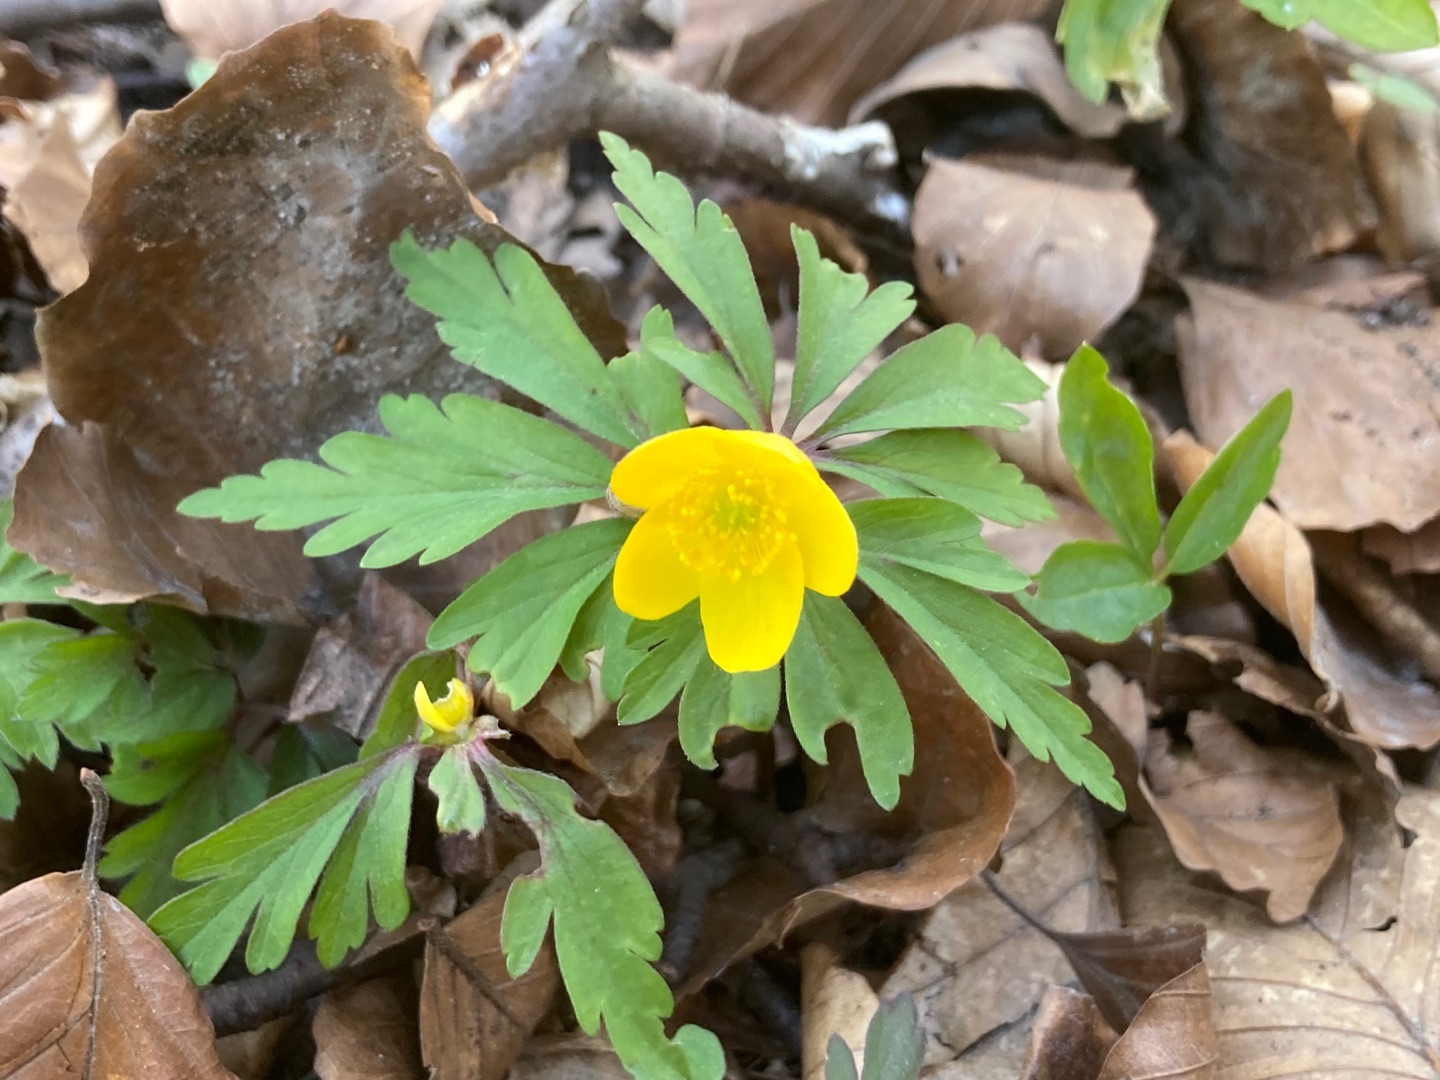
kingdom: Plantae
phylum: Tracheophyta
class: Magnoliopsida
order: Ranunculales
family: Ranunculaceae
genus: Anemone
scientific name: Anemone ranunculoides
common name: Gul anemone
